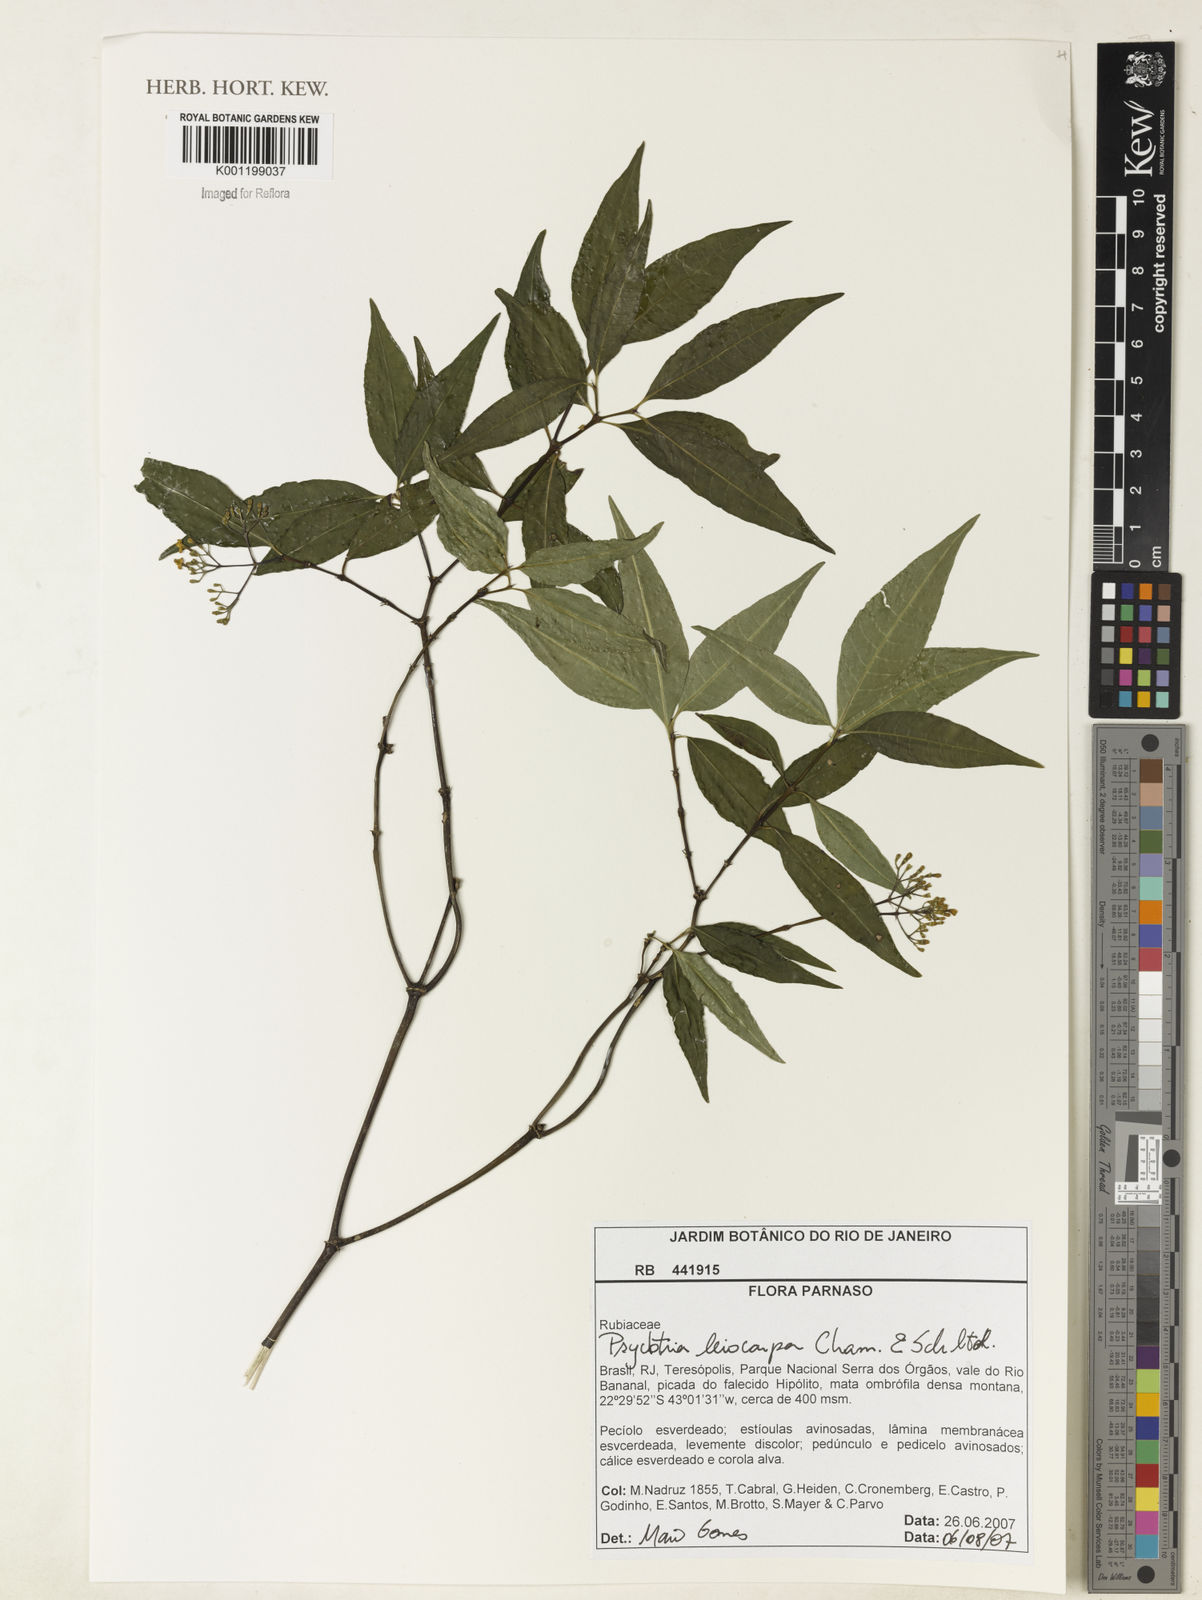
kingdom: Plantae
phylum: Tracheophyta
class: Magnoliopsida
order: Gentianales
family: Rubiaceae
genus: Psychotria
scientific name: Psychotria leiocarpa
